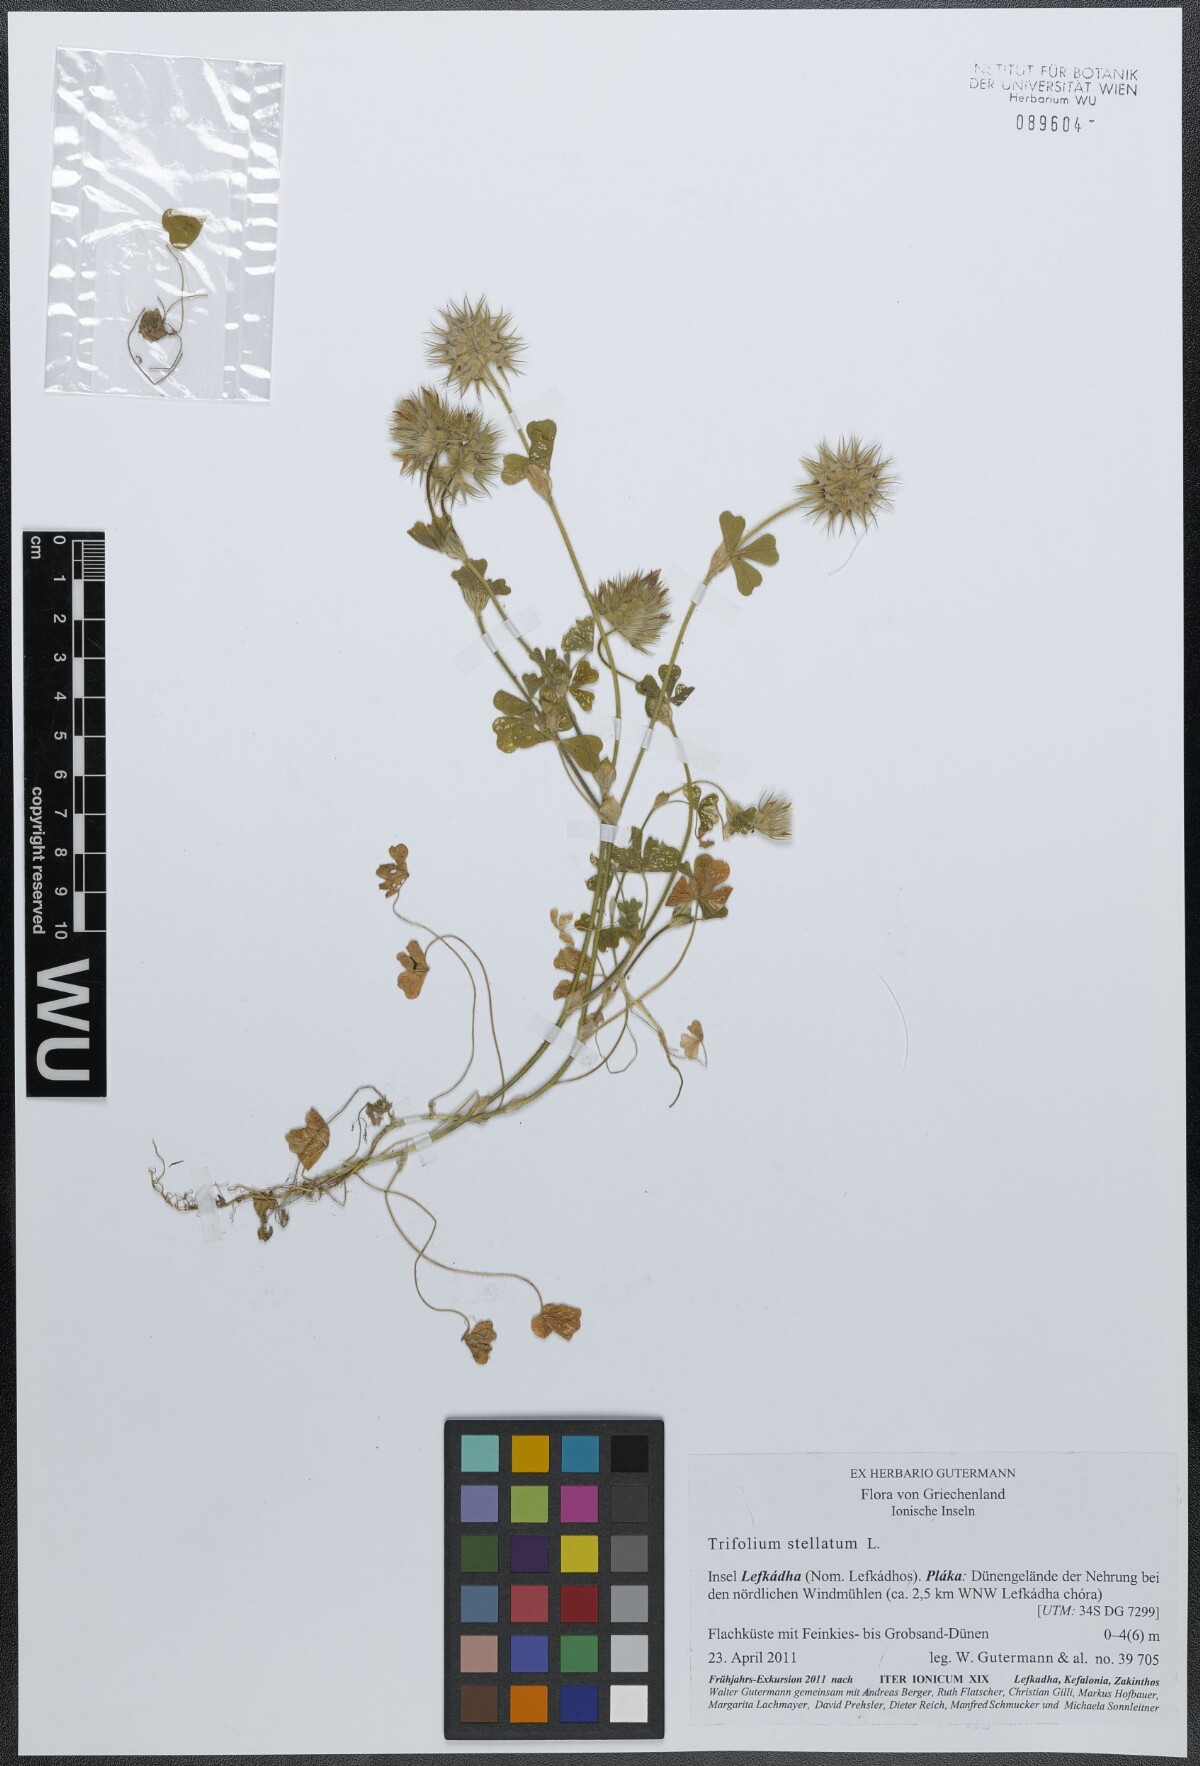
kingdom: Plantae
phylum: Tracheophyta
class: Magnoliopsida
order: Fabales
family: Fabaceae
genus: Trifolium
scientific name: Trifolium stellatum
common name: Starry clover
